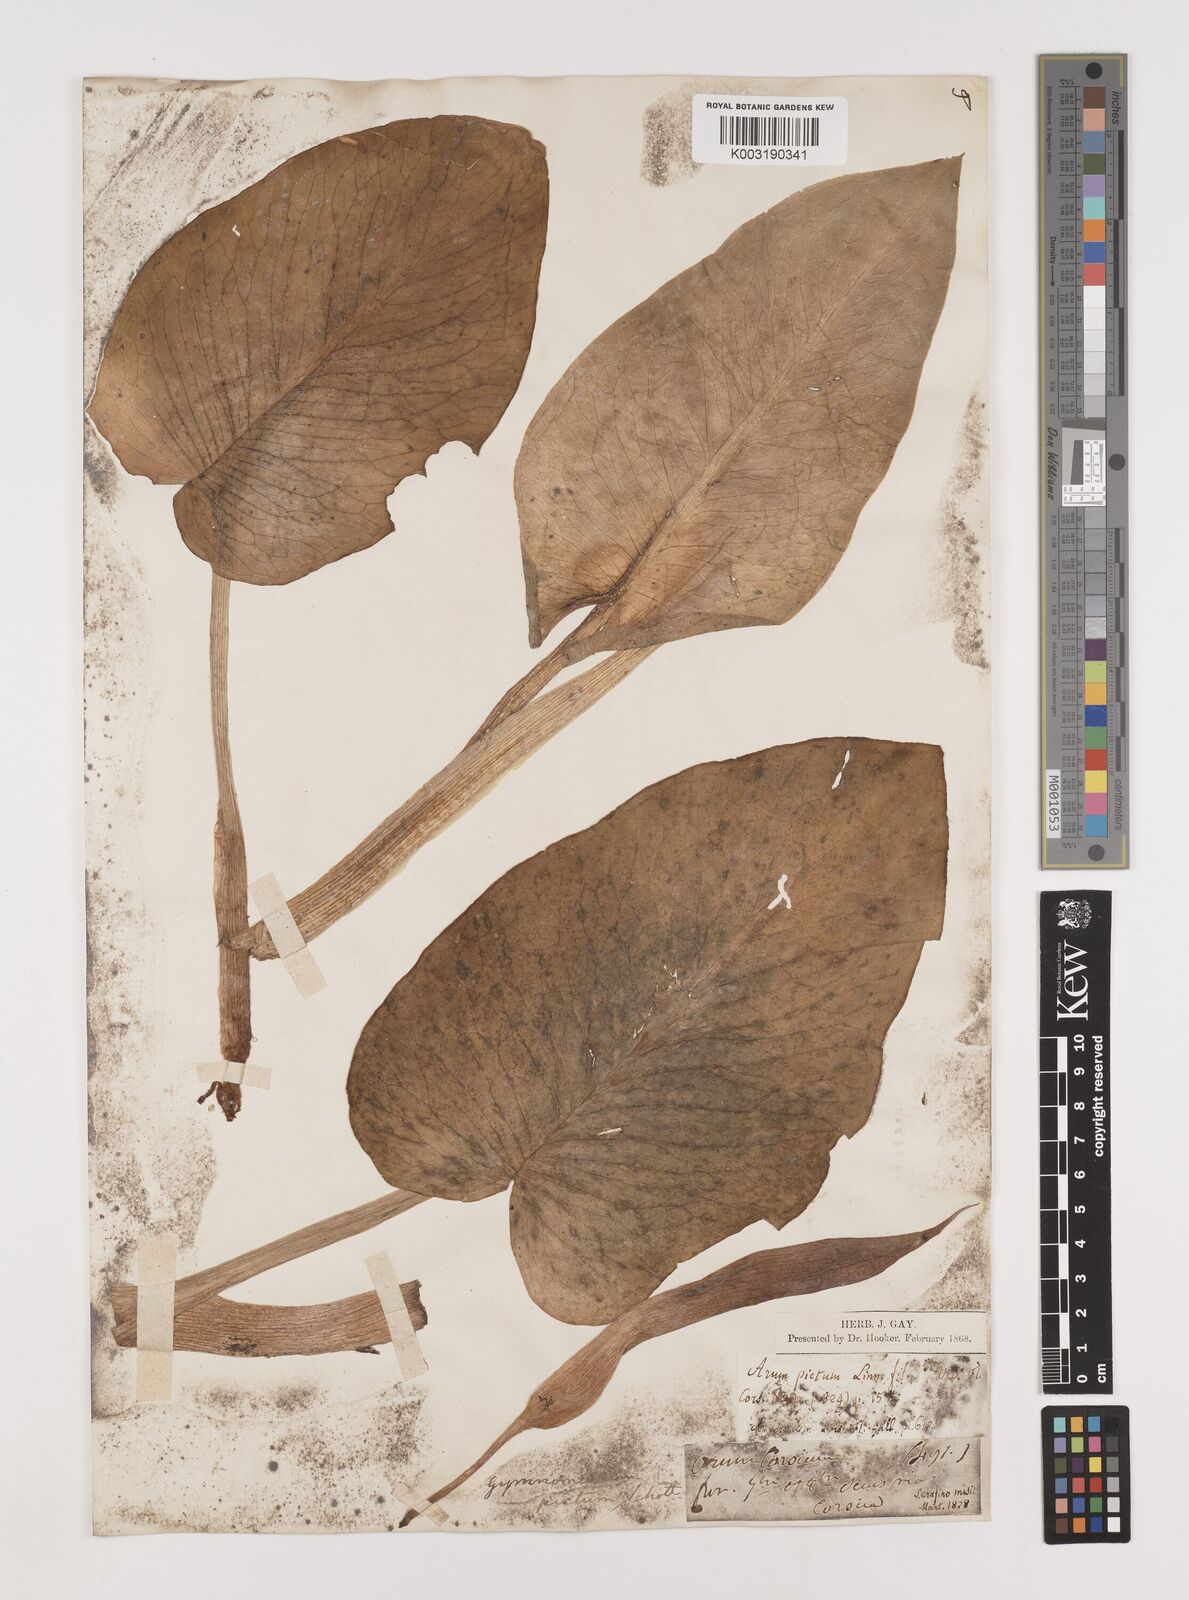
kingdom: Plantae
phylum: Tracheophyta
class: Liliopsida
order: Alismatales
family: Araceae
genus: Arum
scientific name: Arum pictum
